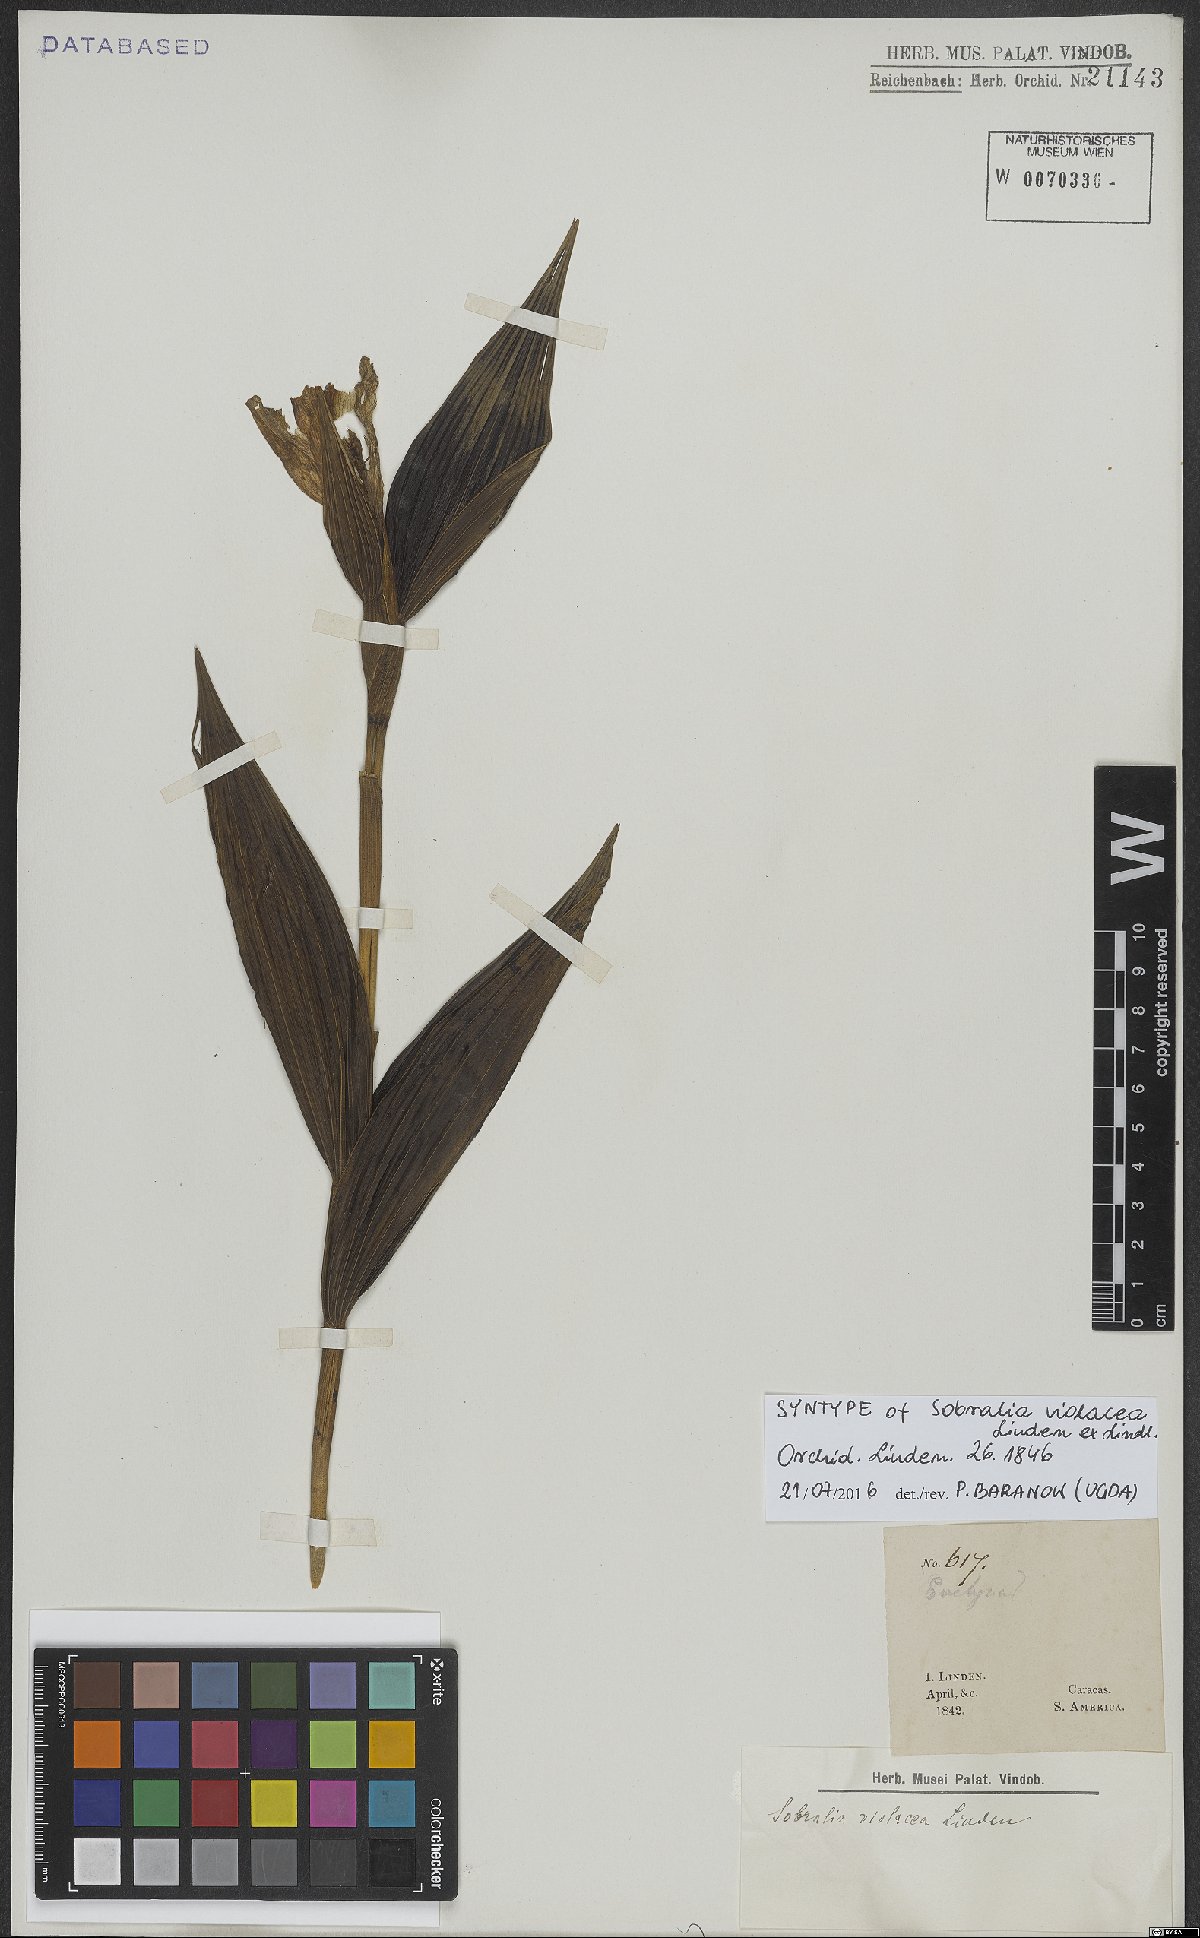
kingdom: Plantae
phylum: Tracheophyta
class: Liliopsida
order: Asparagales
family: Orchidaceae
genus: Sobralia
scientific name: Sobralia violacea
